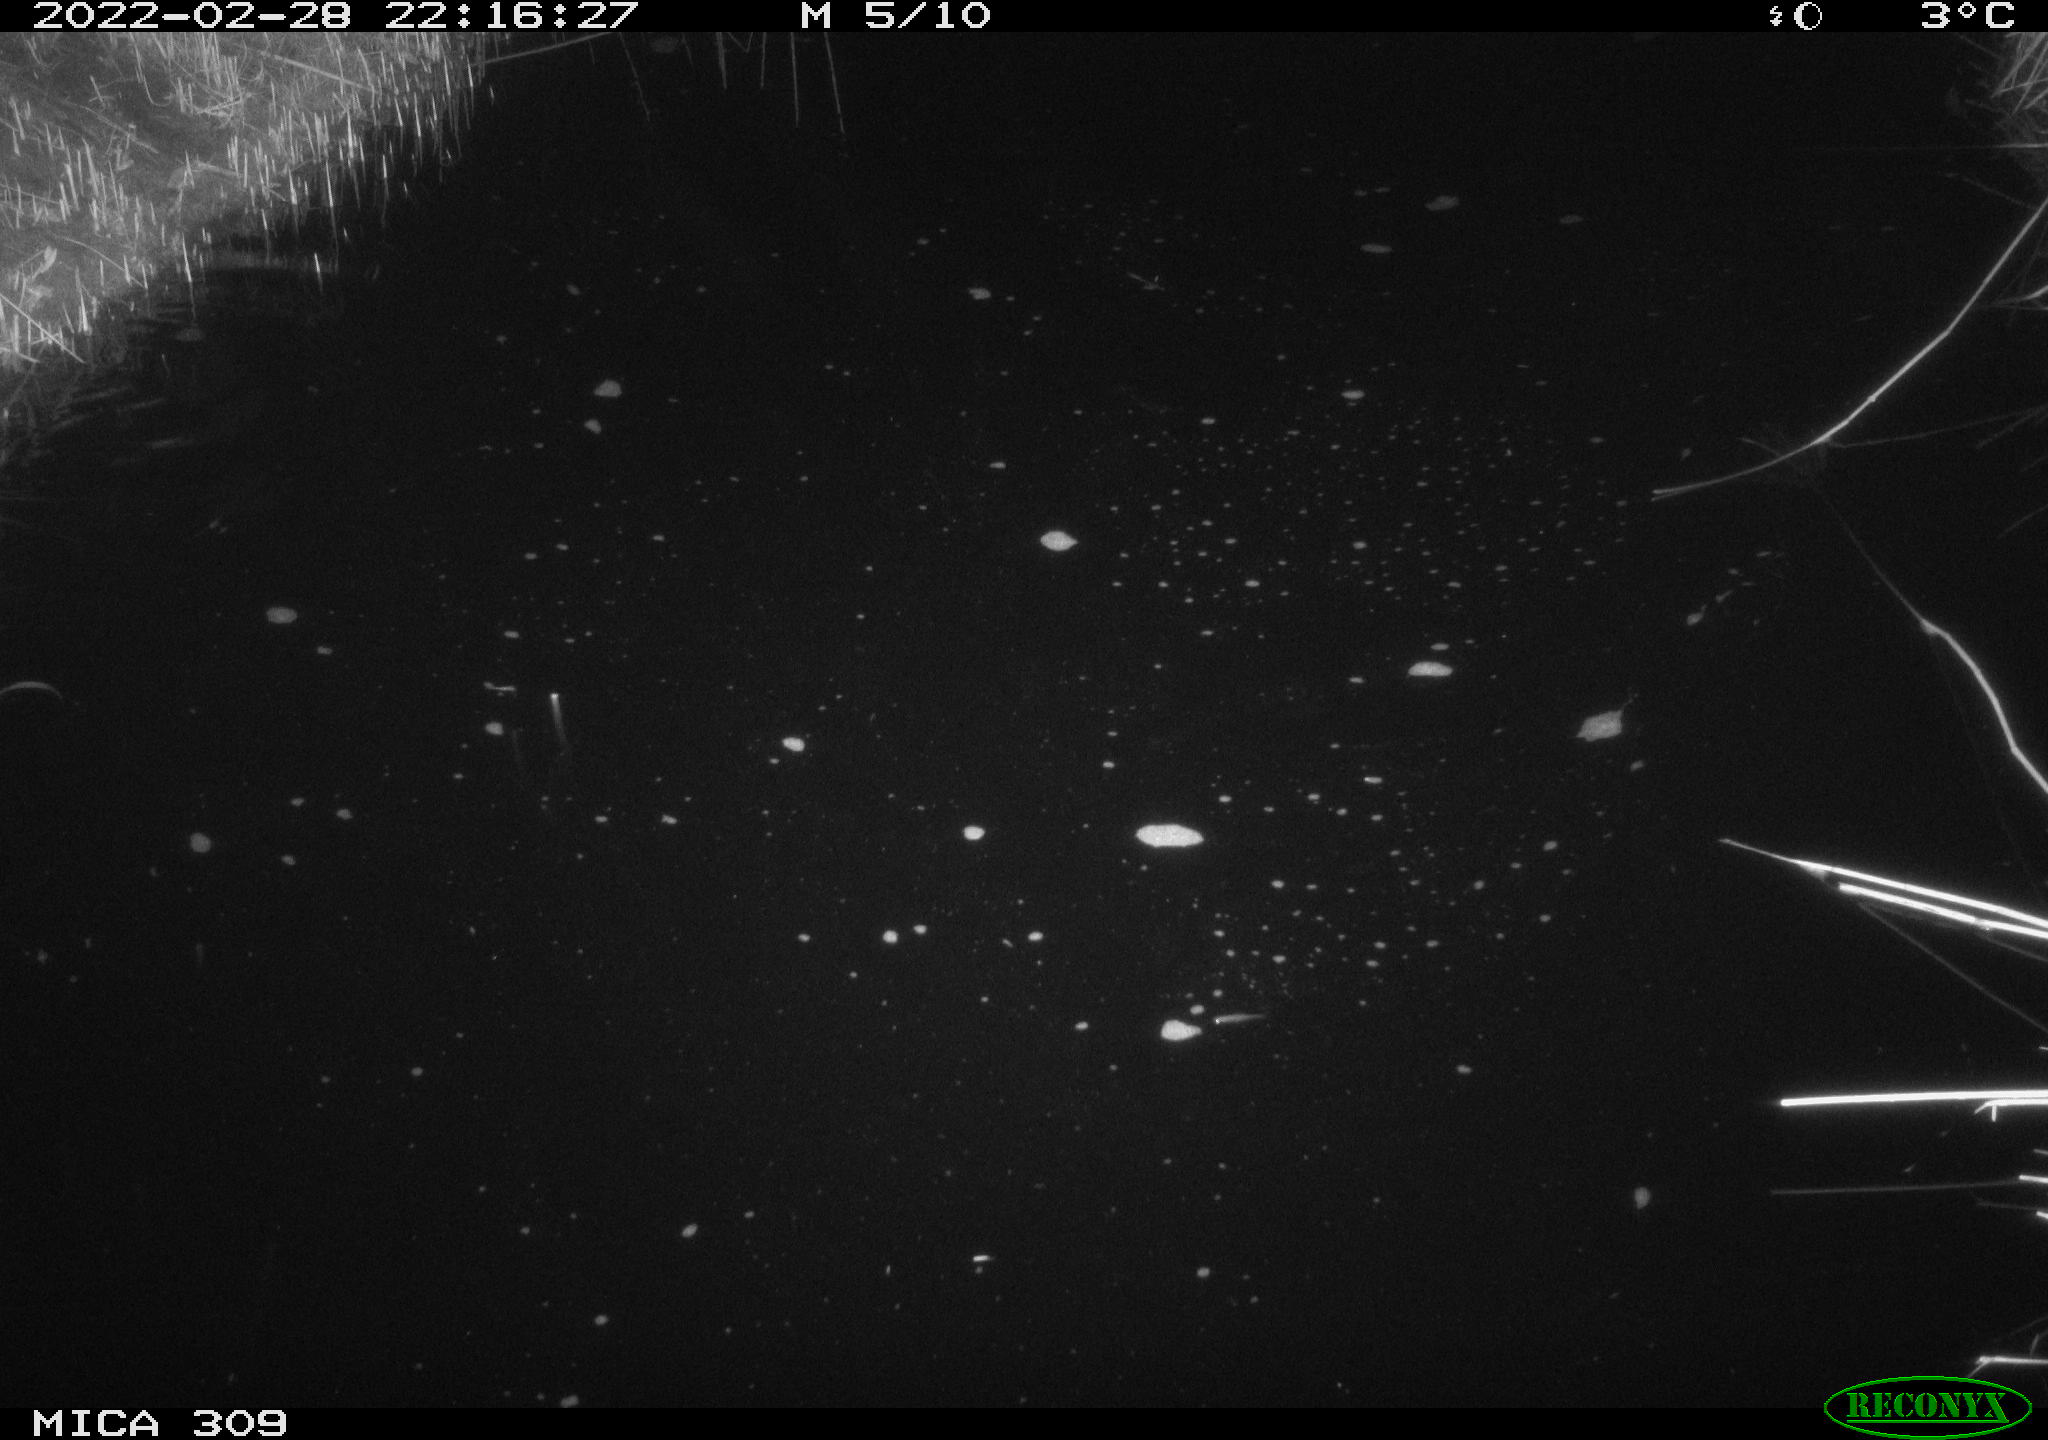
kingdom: Animalia
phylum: Chordata
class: Mammalia
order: Rodentia
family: Muridae
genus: Rattus
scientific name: Rattus norvegicus
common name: Brown rat
